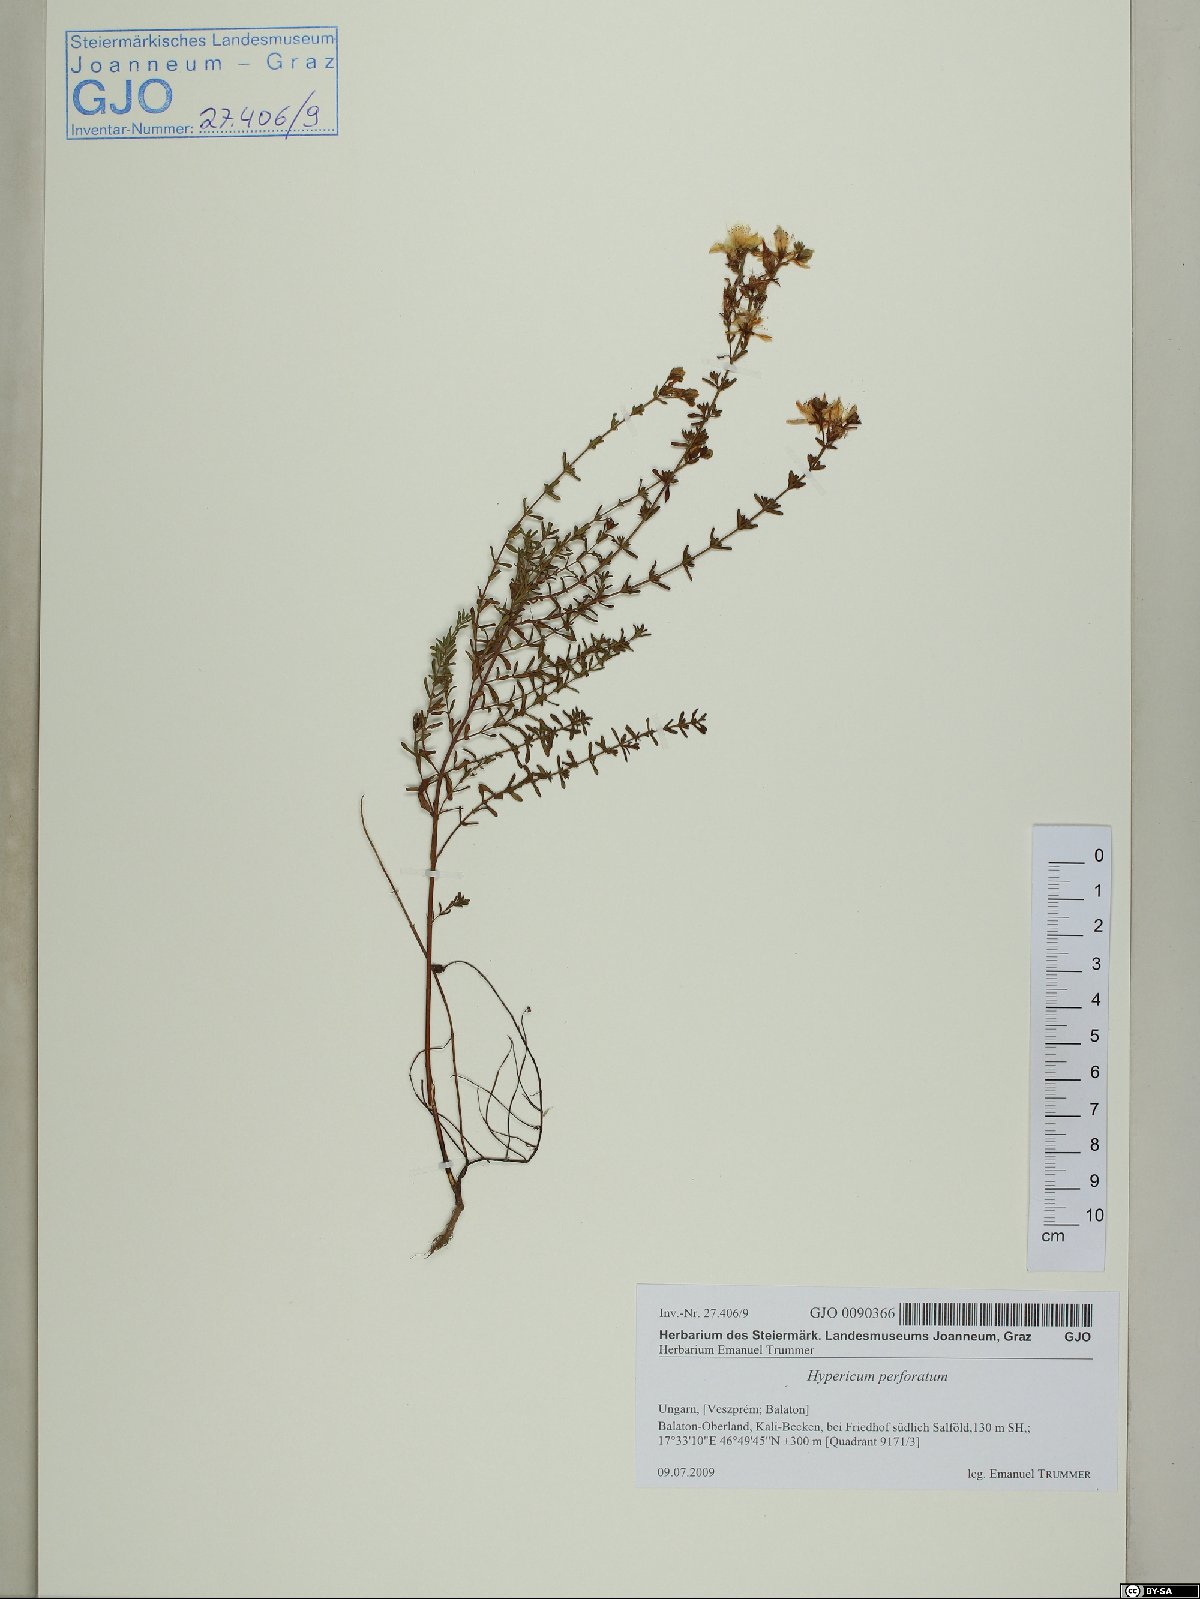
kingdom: Plantae
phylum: Tracheophyta
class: Magnoliopsida
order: Malpighiales
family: Hypericaceae
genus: Hypericum
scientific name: Hypericum perforatum
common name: Common st. johnswort
